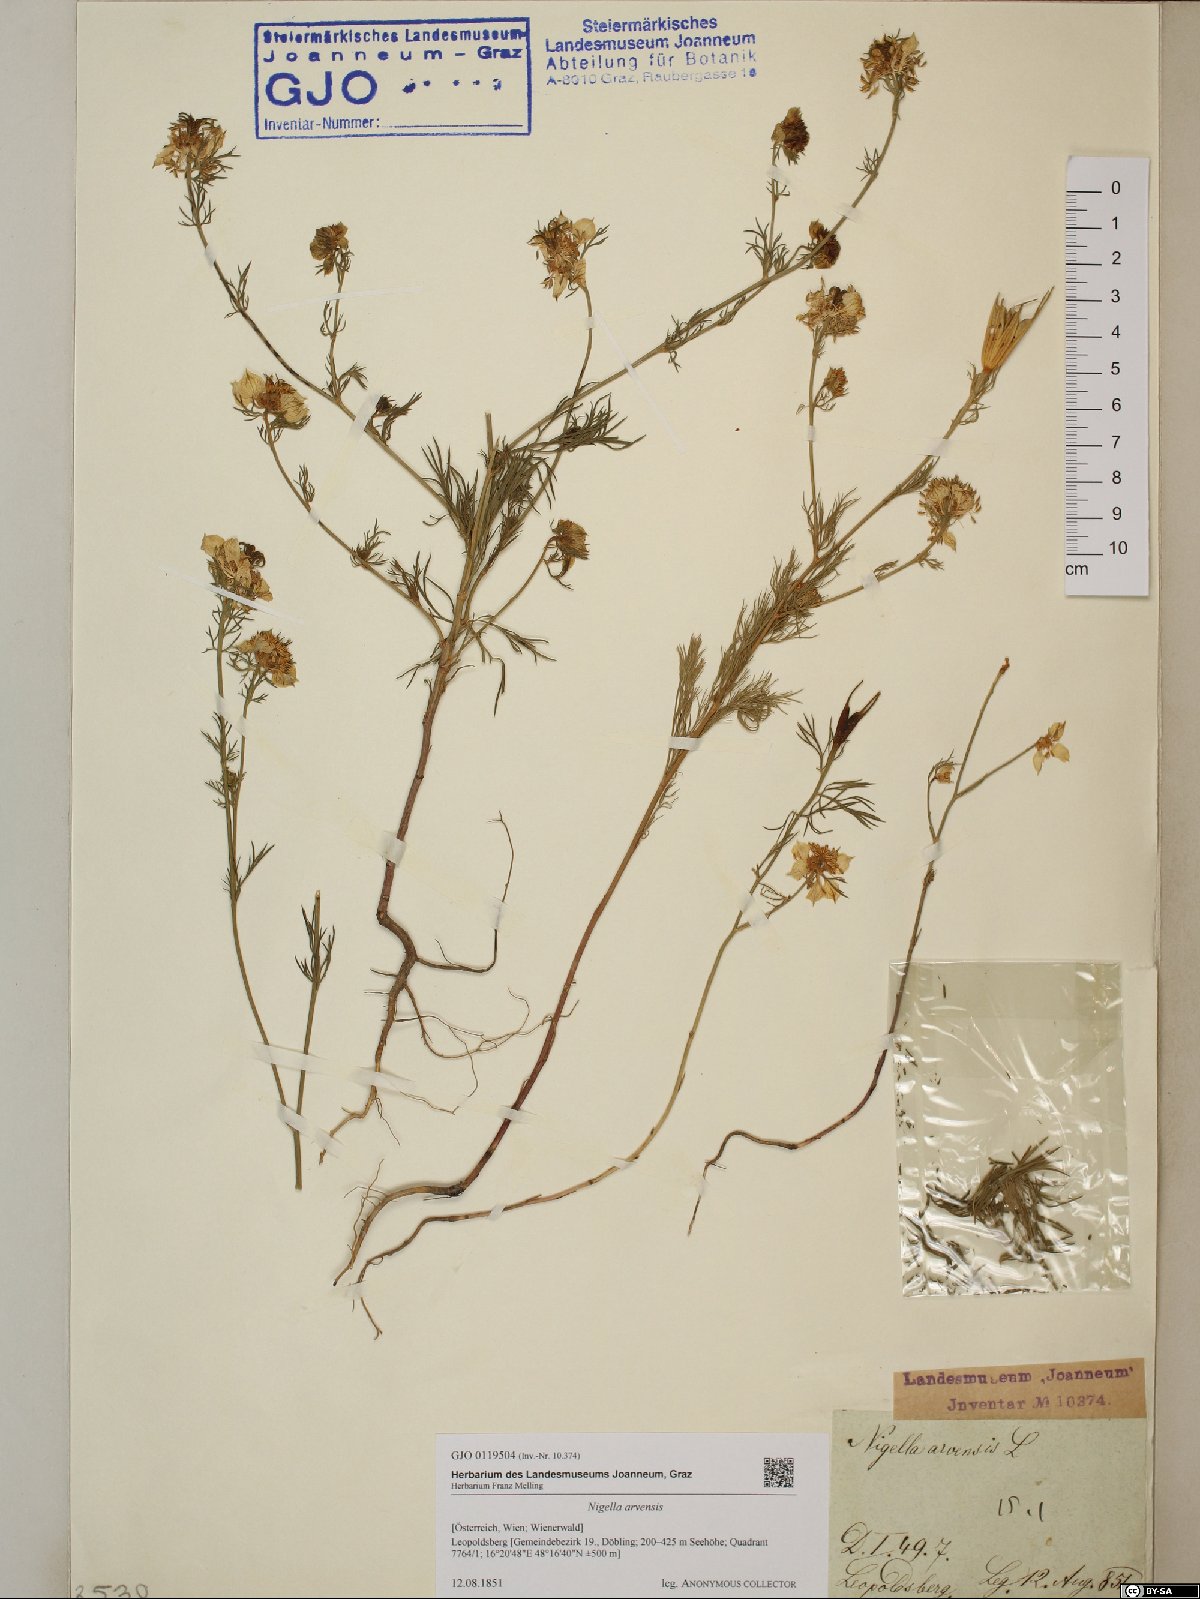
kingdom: Plantae
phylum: Tracheophyta
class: Magnoliopsida
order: Ranunculales
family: Ranunculaceae
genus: Nigella
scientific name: Nigella arvensis
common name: Wild fennel-flower
